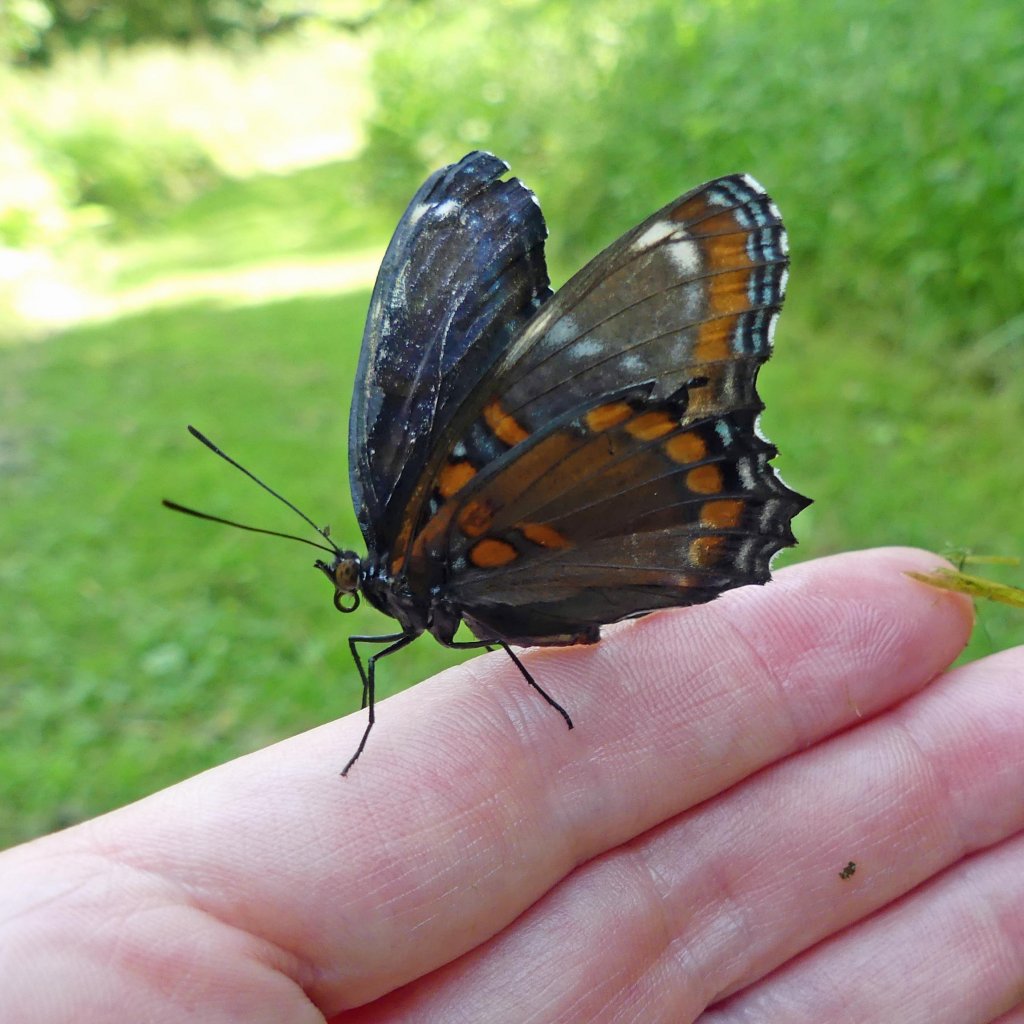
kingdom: Animalia
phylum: Arthropoda
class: Insecta
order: Lepidoptera
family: Nymphalidae
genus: Limenitis
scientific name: Limenitis astyanax
